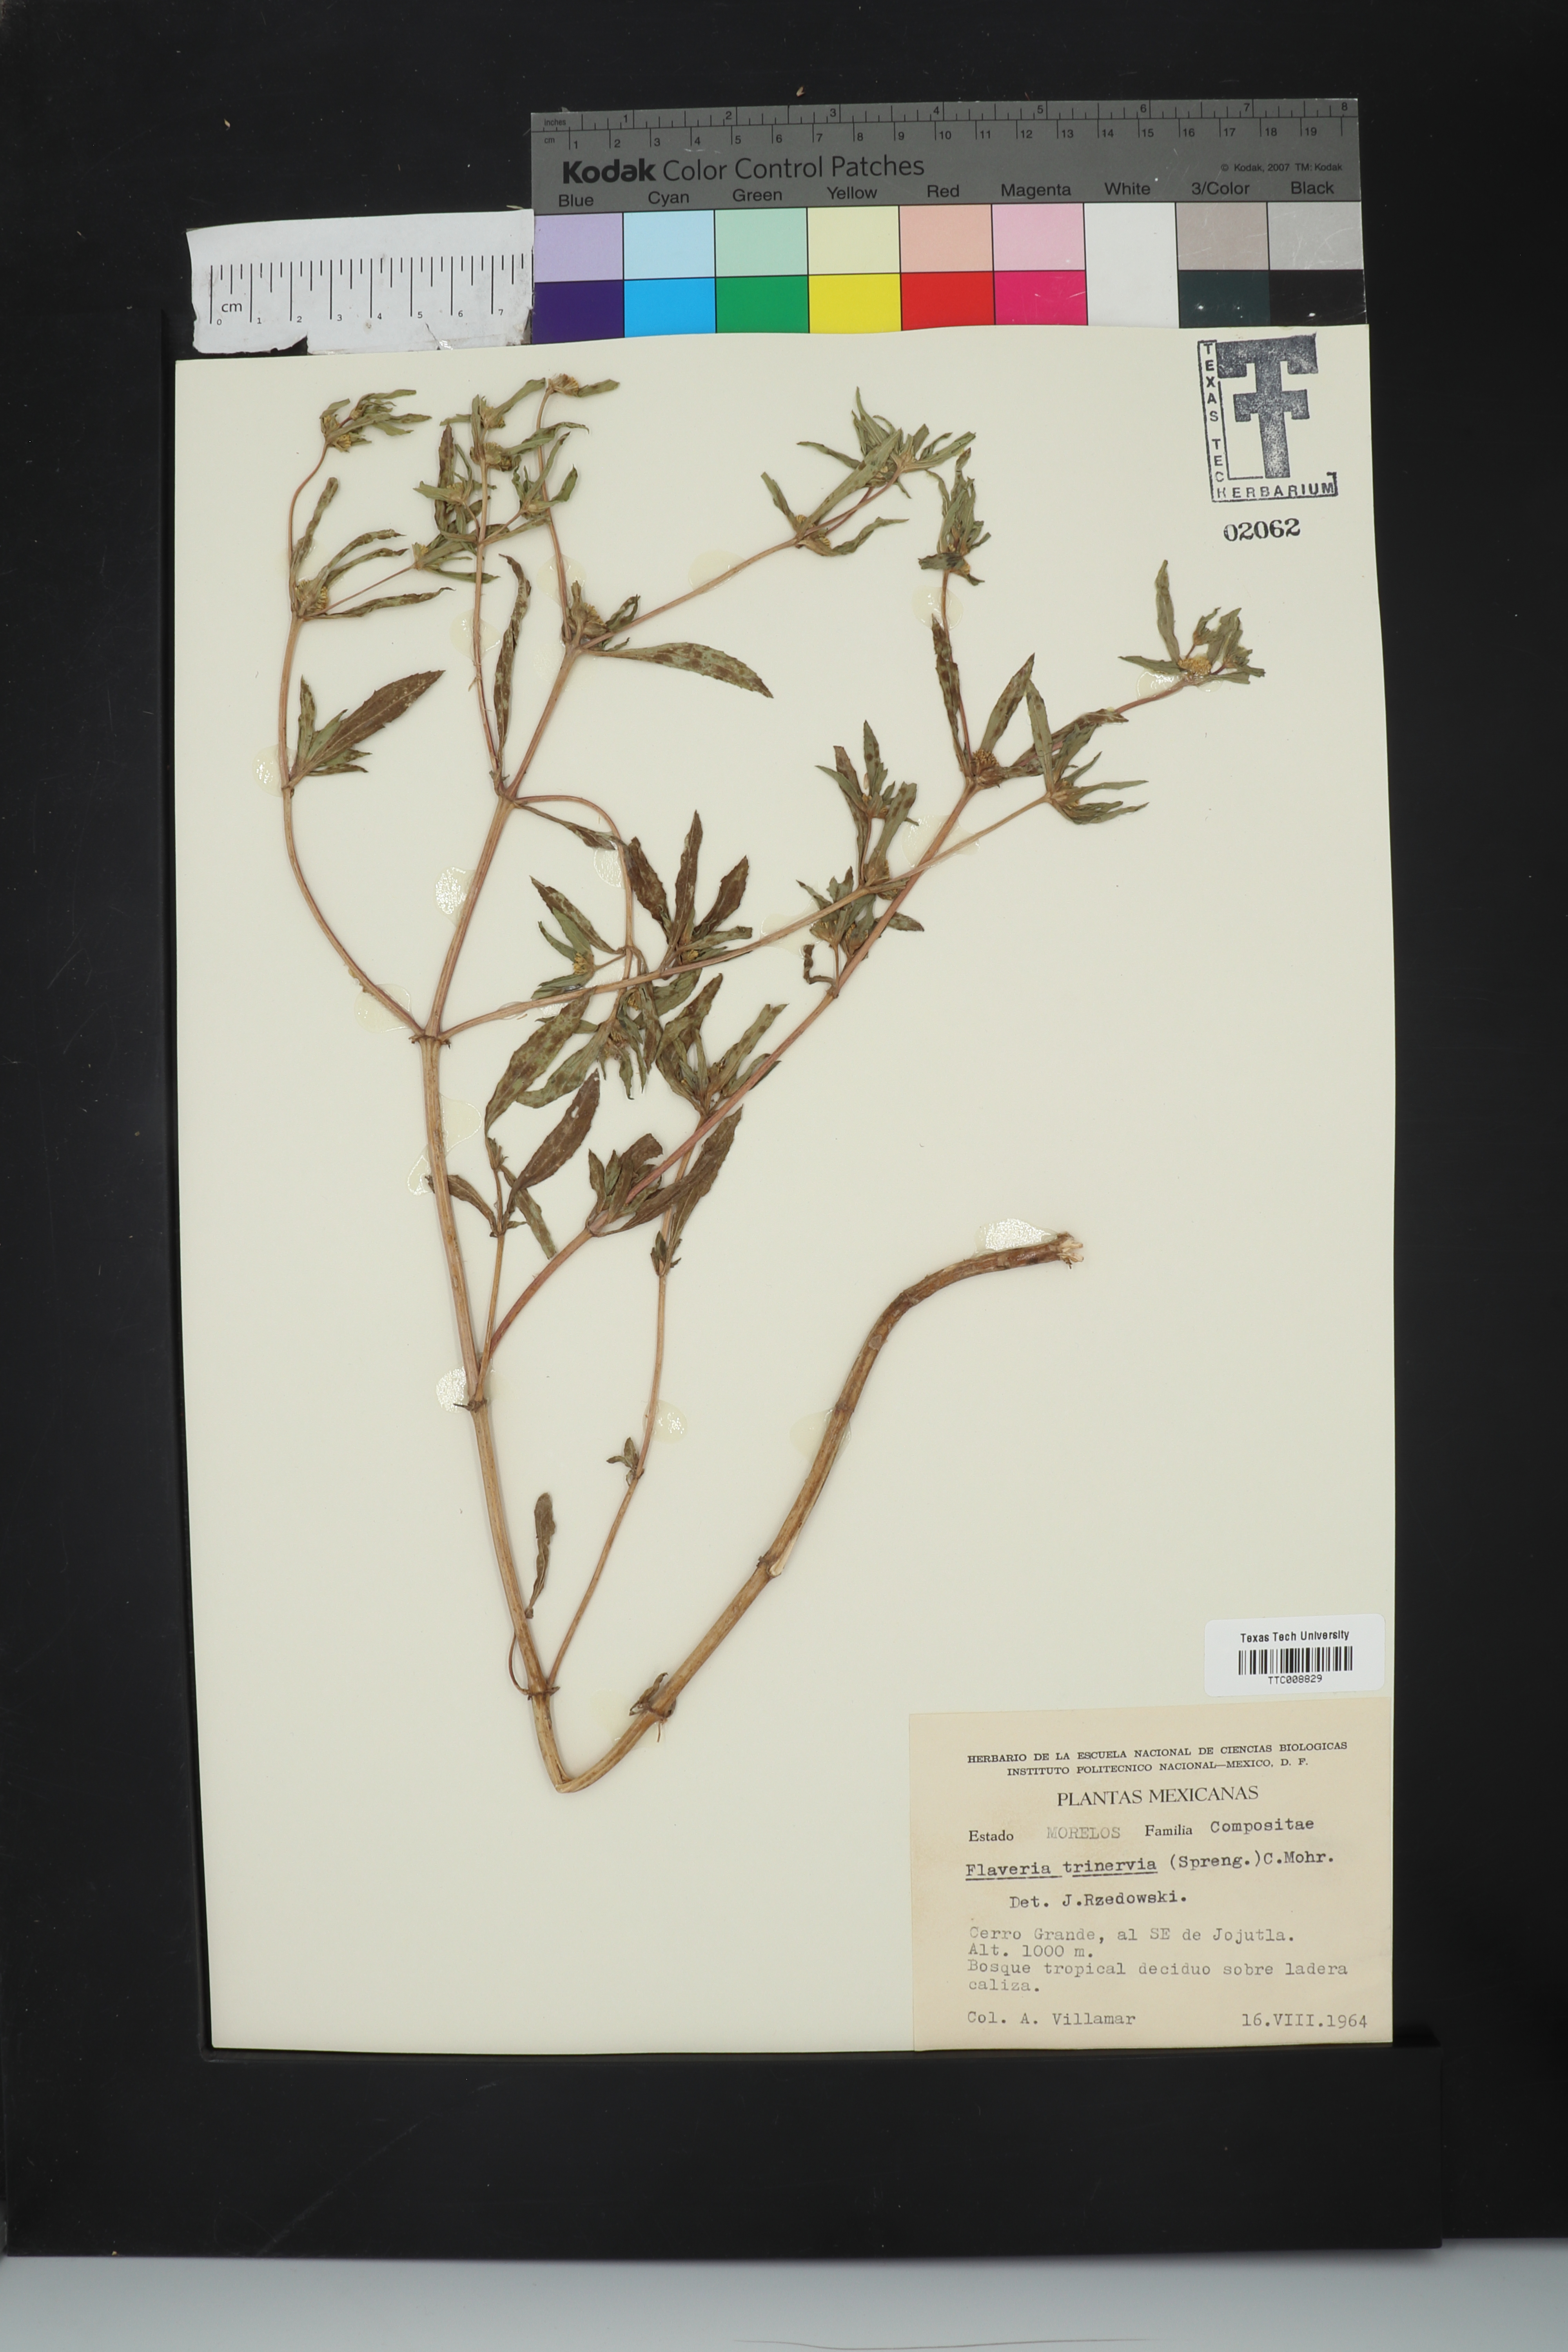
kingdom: Plantae
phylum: Tracheophyta
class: Magnoliopsida
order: Asterales
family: Asteraceae
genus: Flaveria
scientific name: Flaveria trinervia
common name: Clustered yellowtops
